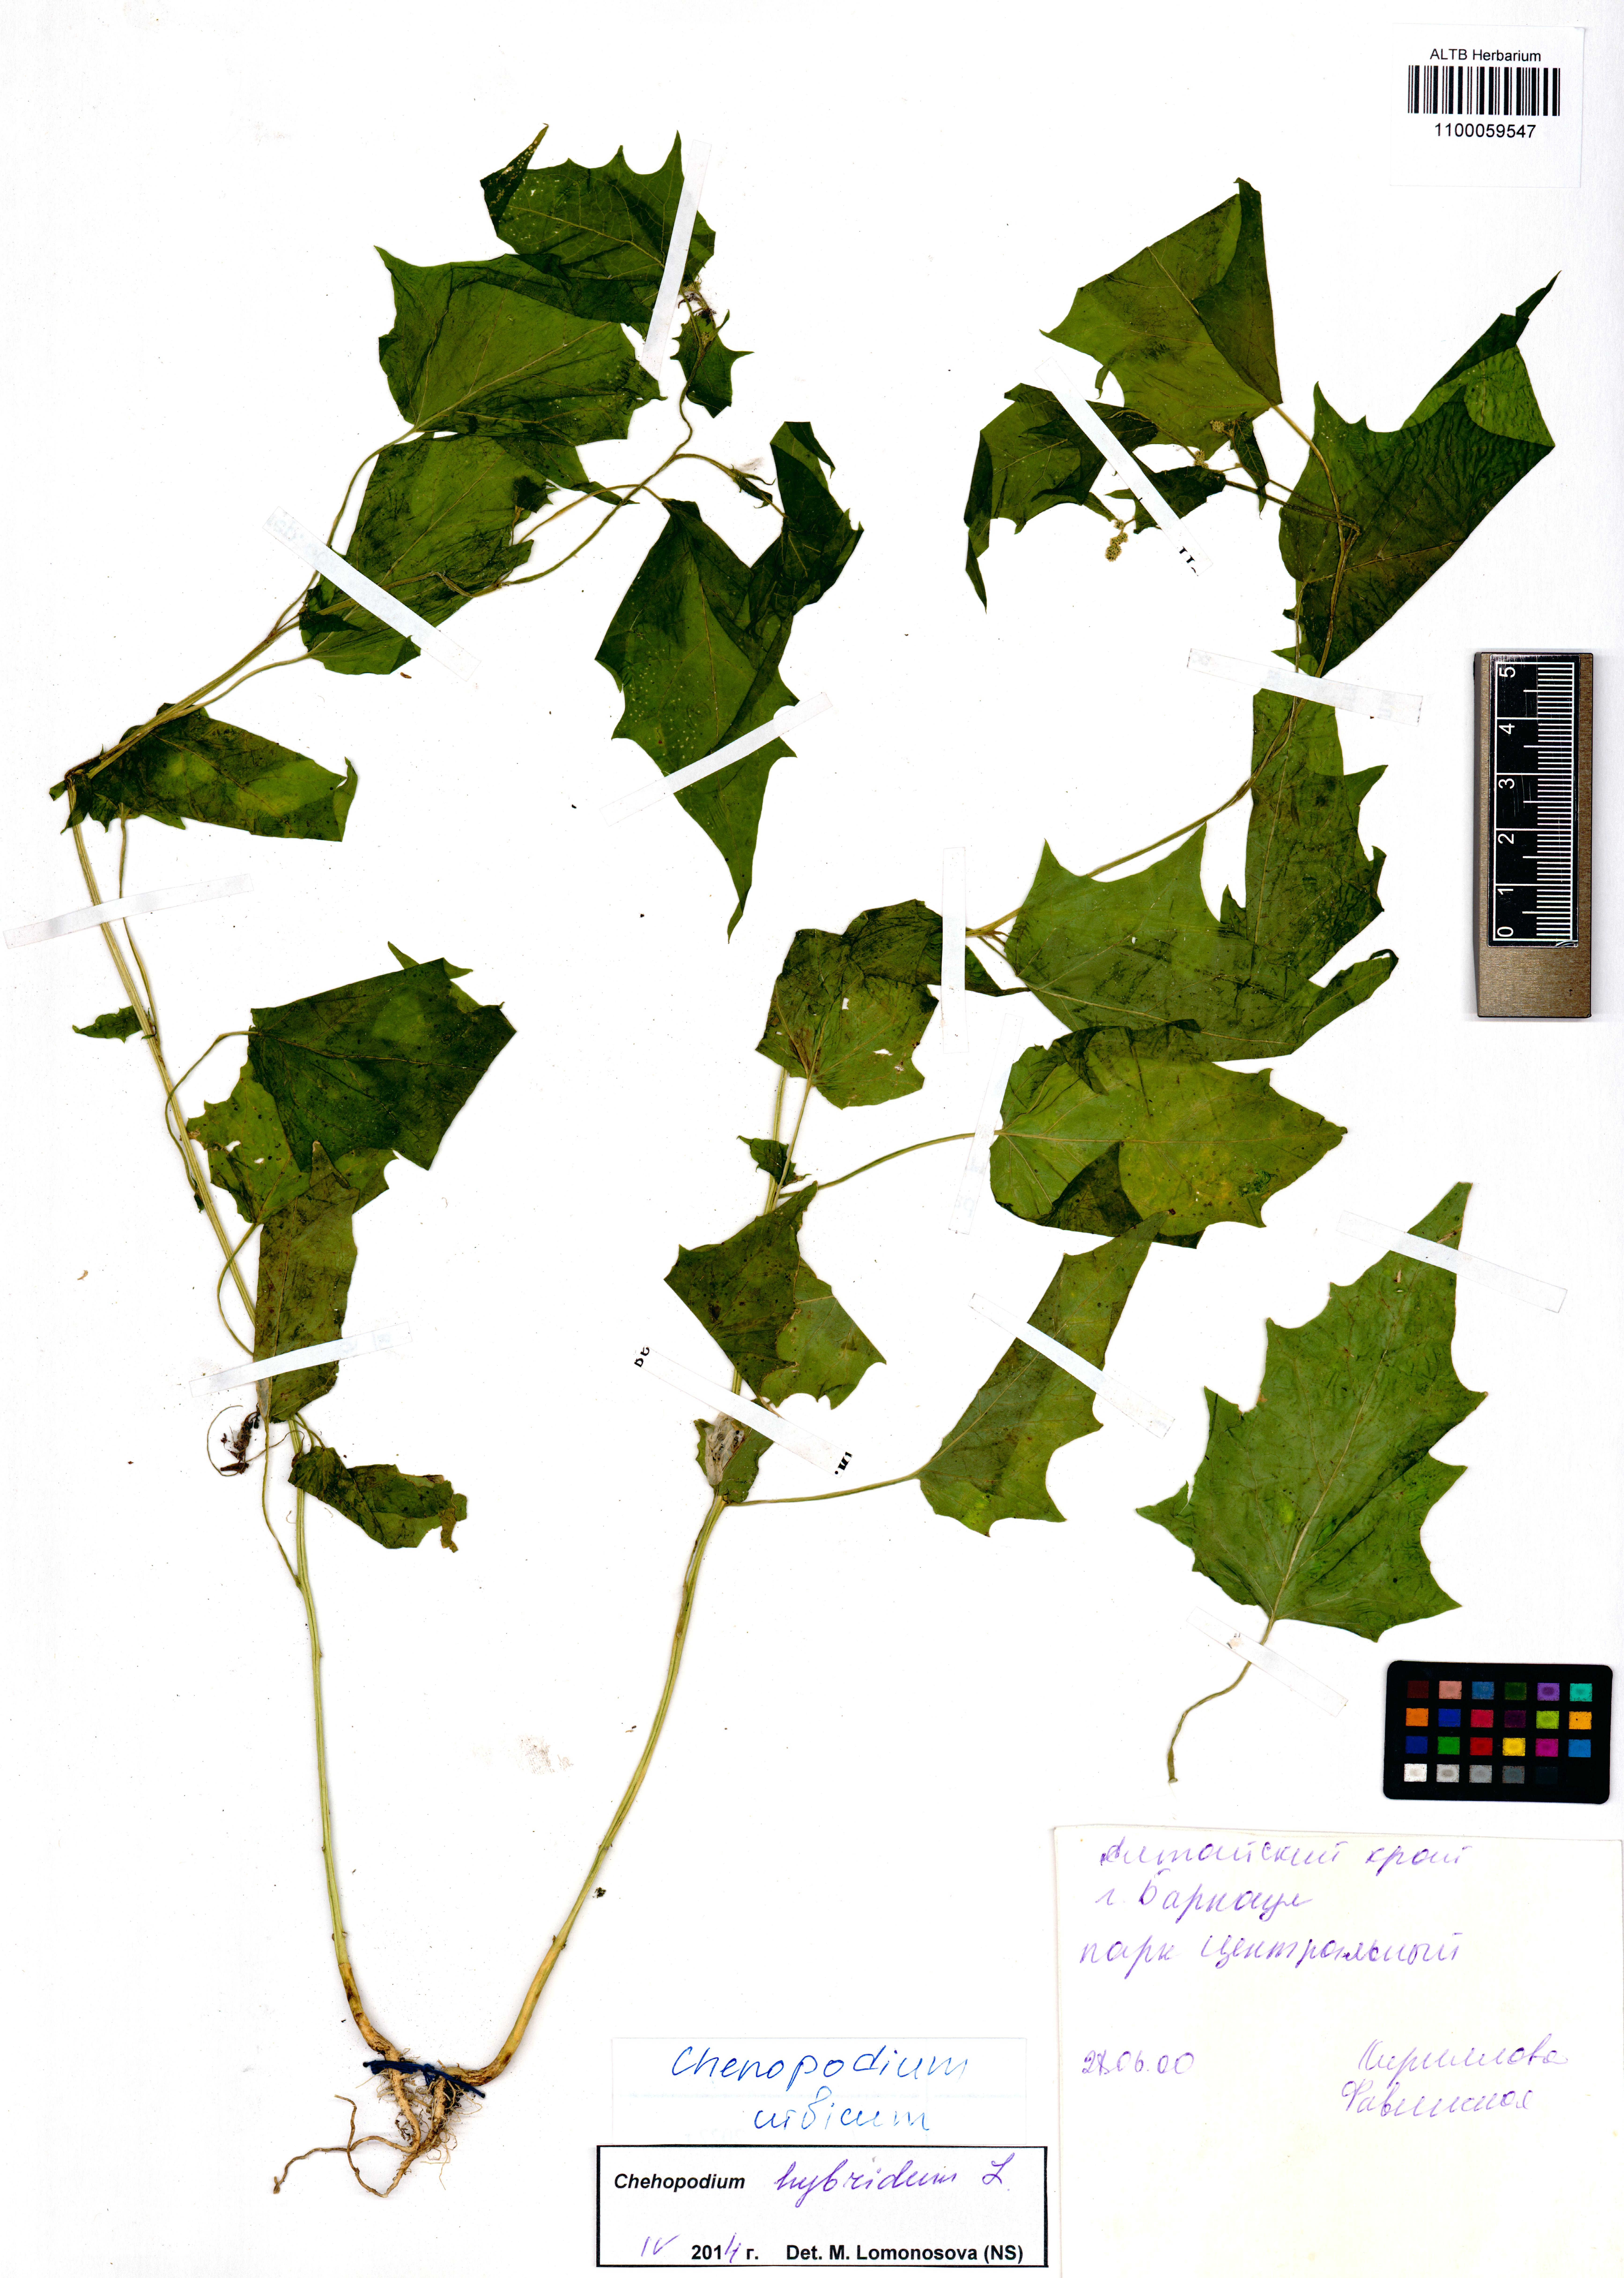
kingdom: Plantae
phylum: Tracheophyta
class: Magnoliopsida
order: Caryophyllales
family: Amaranthaceae
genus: Oxybasis
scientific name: Oxybasis urbica
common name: City goosefoot
